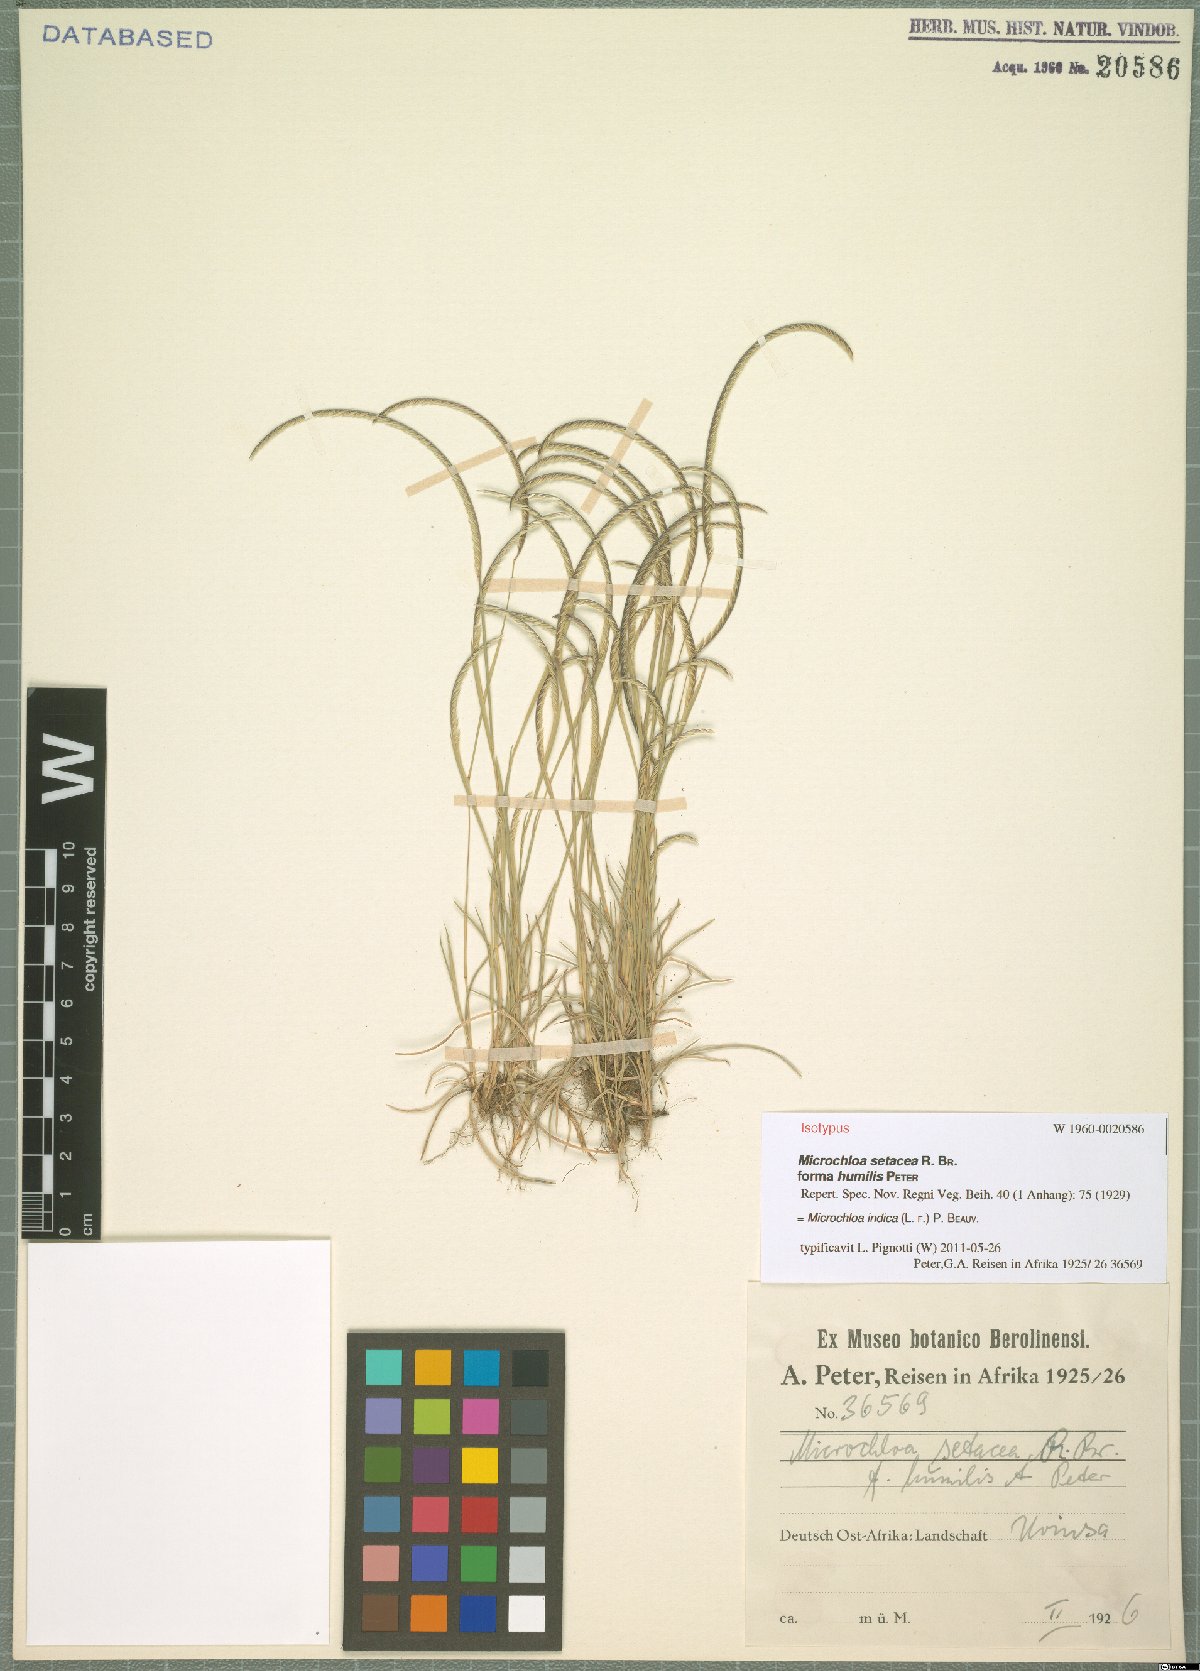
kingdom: Plantae
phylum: Tracheophyta
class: Liliopsida
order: Poales
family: Poaceae
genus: Microchloa
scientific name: Microchloa indica
